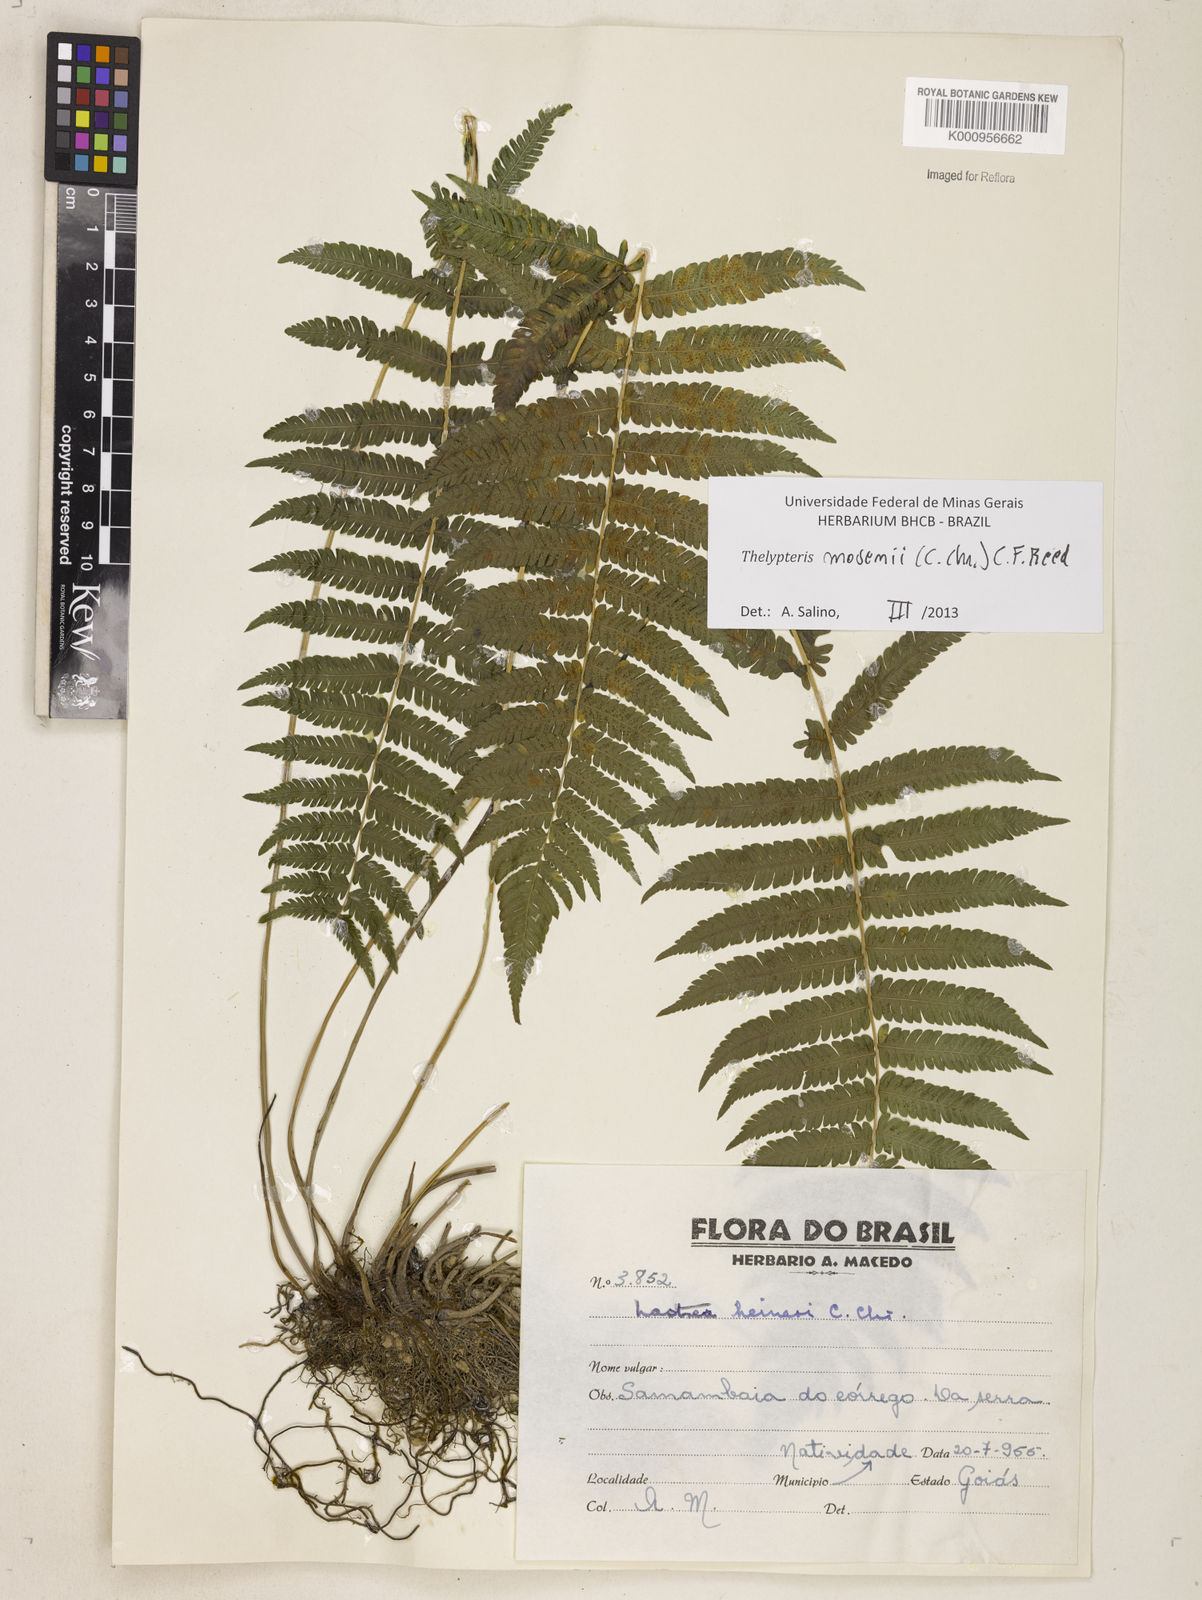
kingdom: Plantae
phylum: Tracheophyta
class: Polypodiopsida
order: Polypodiales
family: Thelypteridaceae
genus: Amauropelta
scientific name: Amauropelta
